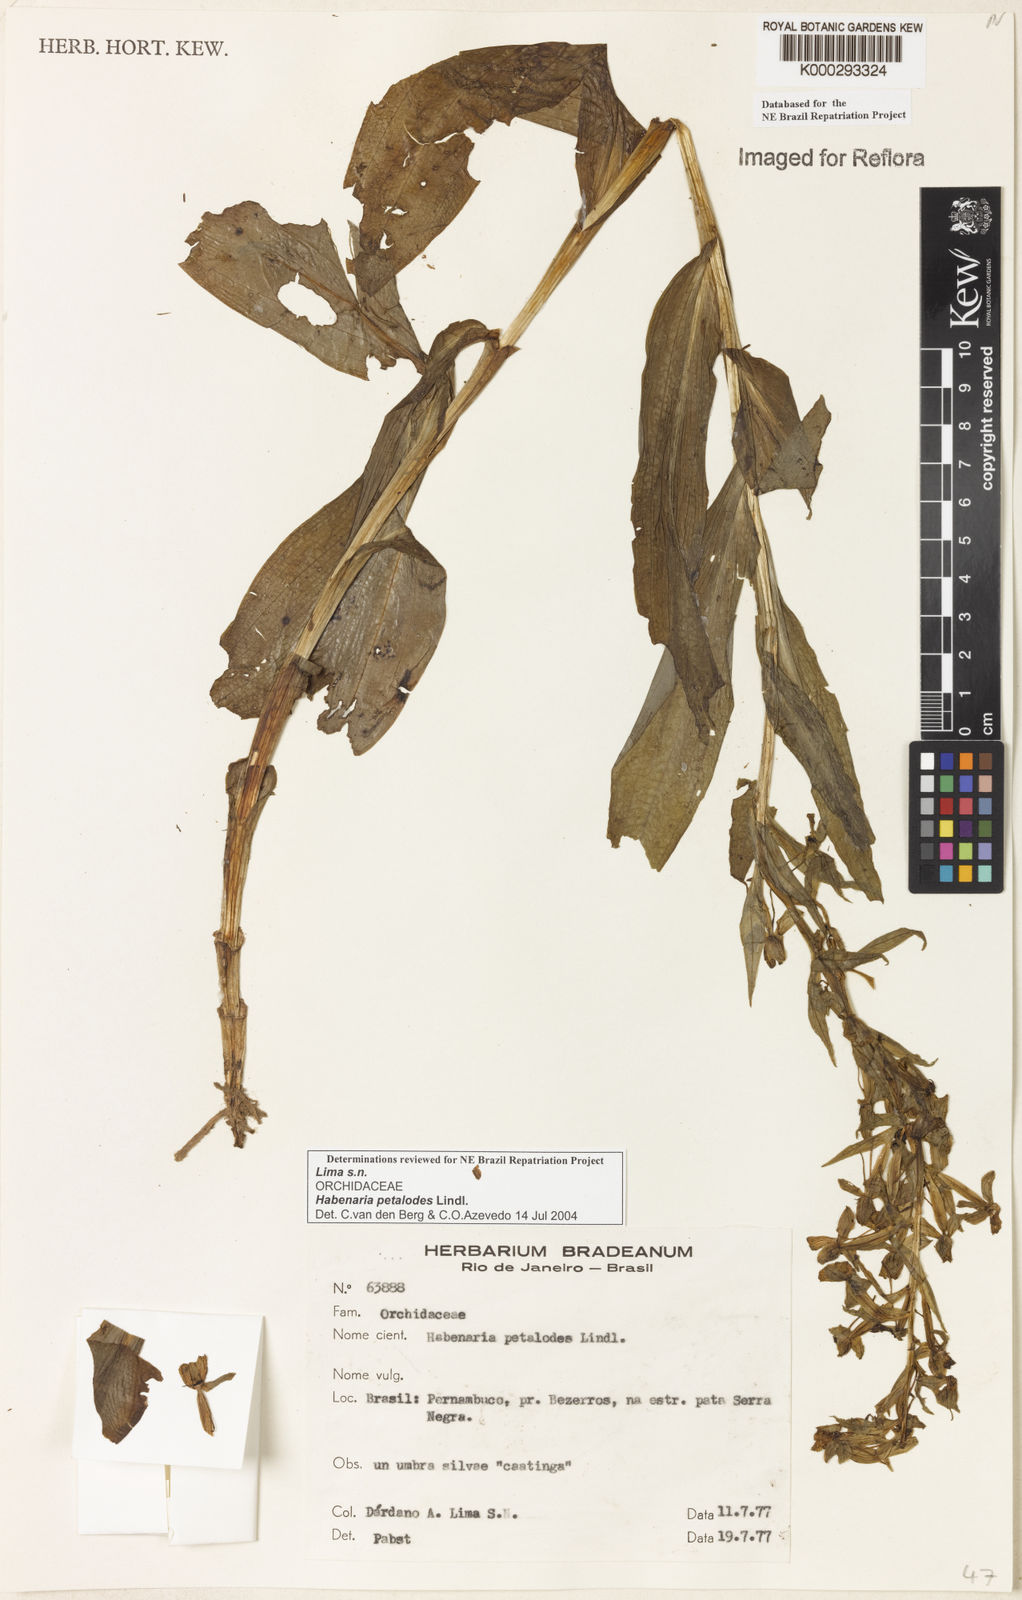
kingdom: Plantae
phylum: Tracheophyta
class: Liliopsida
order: Asparagales
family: Orchidaceae
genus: Habenaria
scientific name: Habenaria petalodes
